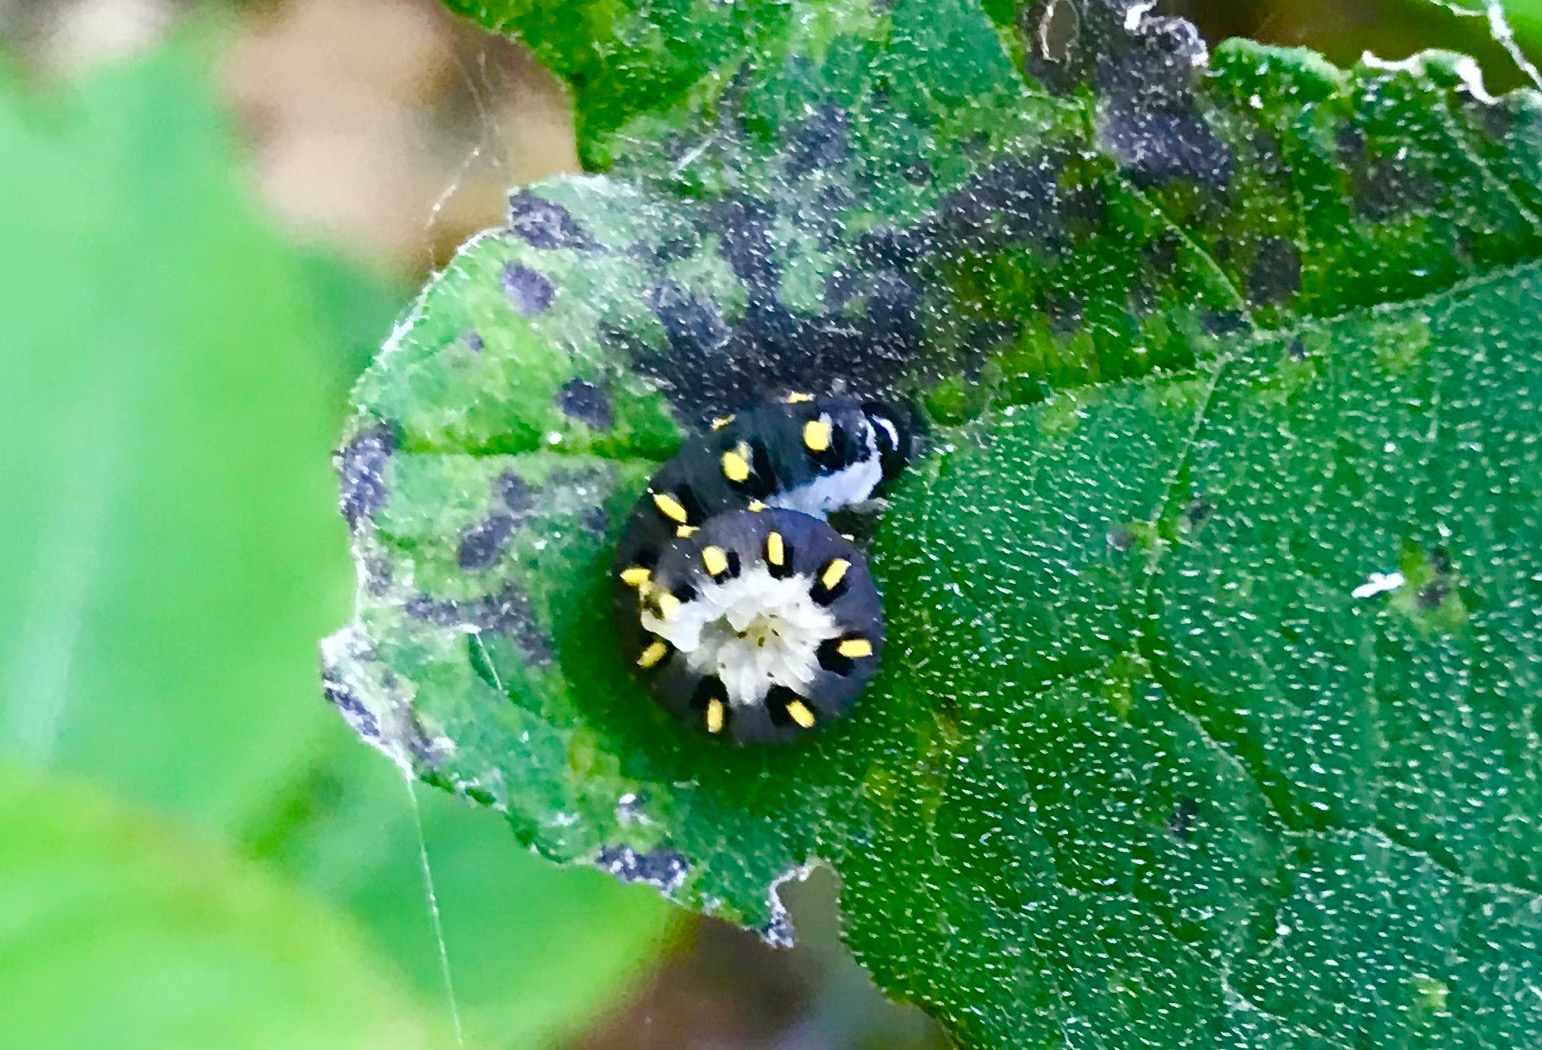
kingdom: Animalia
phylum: Arthropoda
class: Insecta
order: Hymenoptera
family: Tenthredinidae
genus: Tenthredo
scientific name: Tenthredo mandibularis
